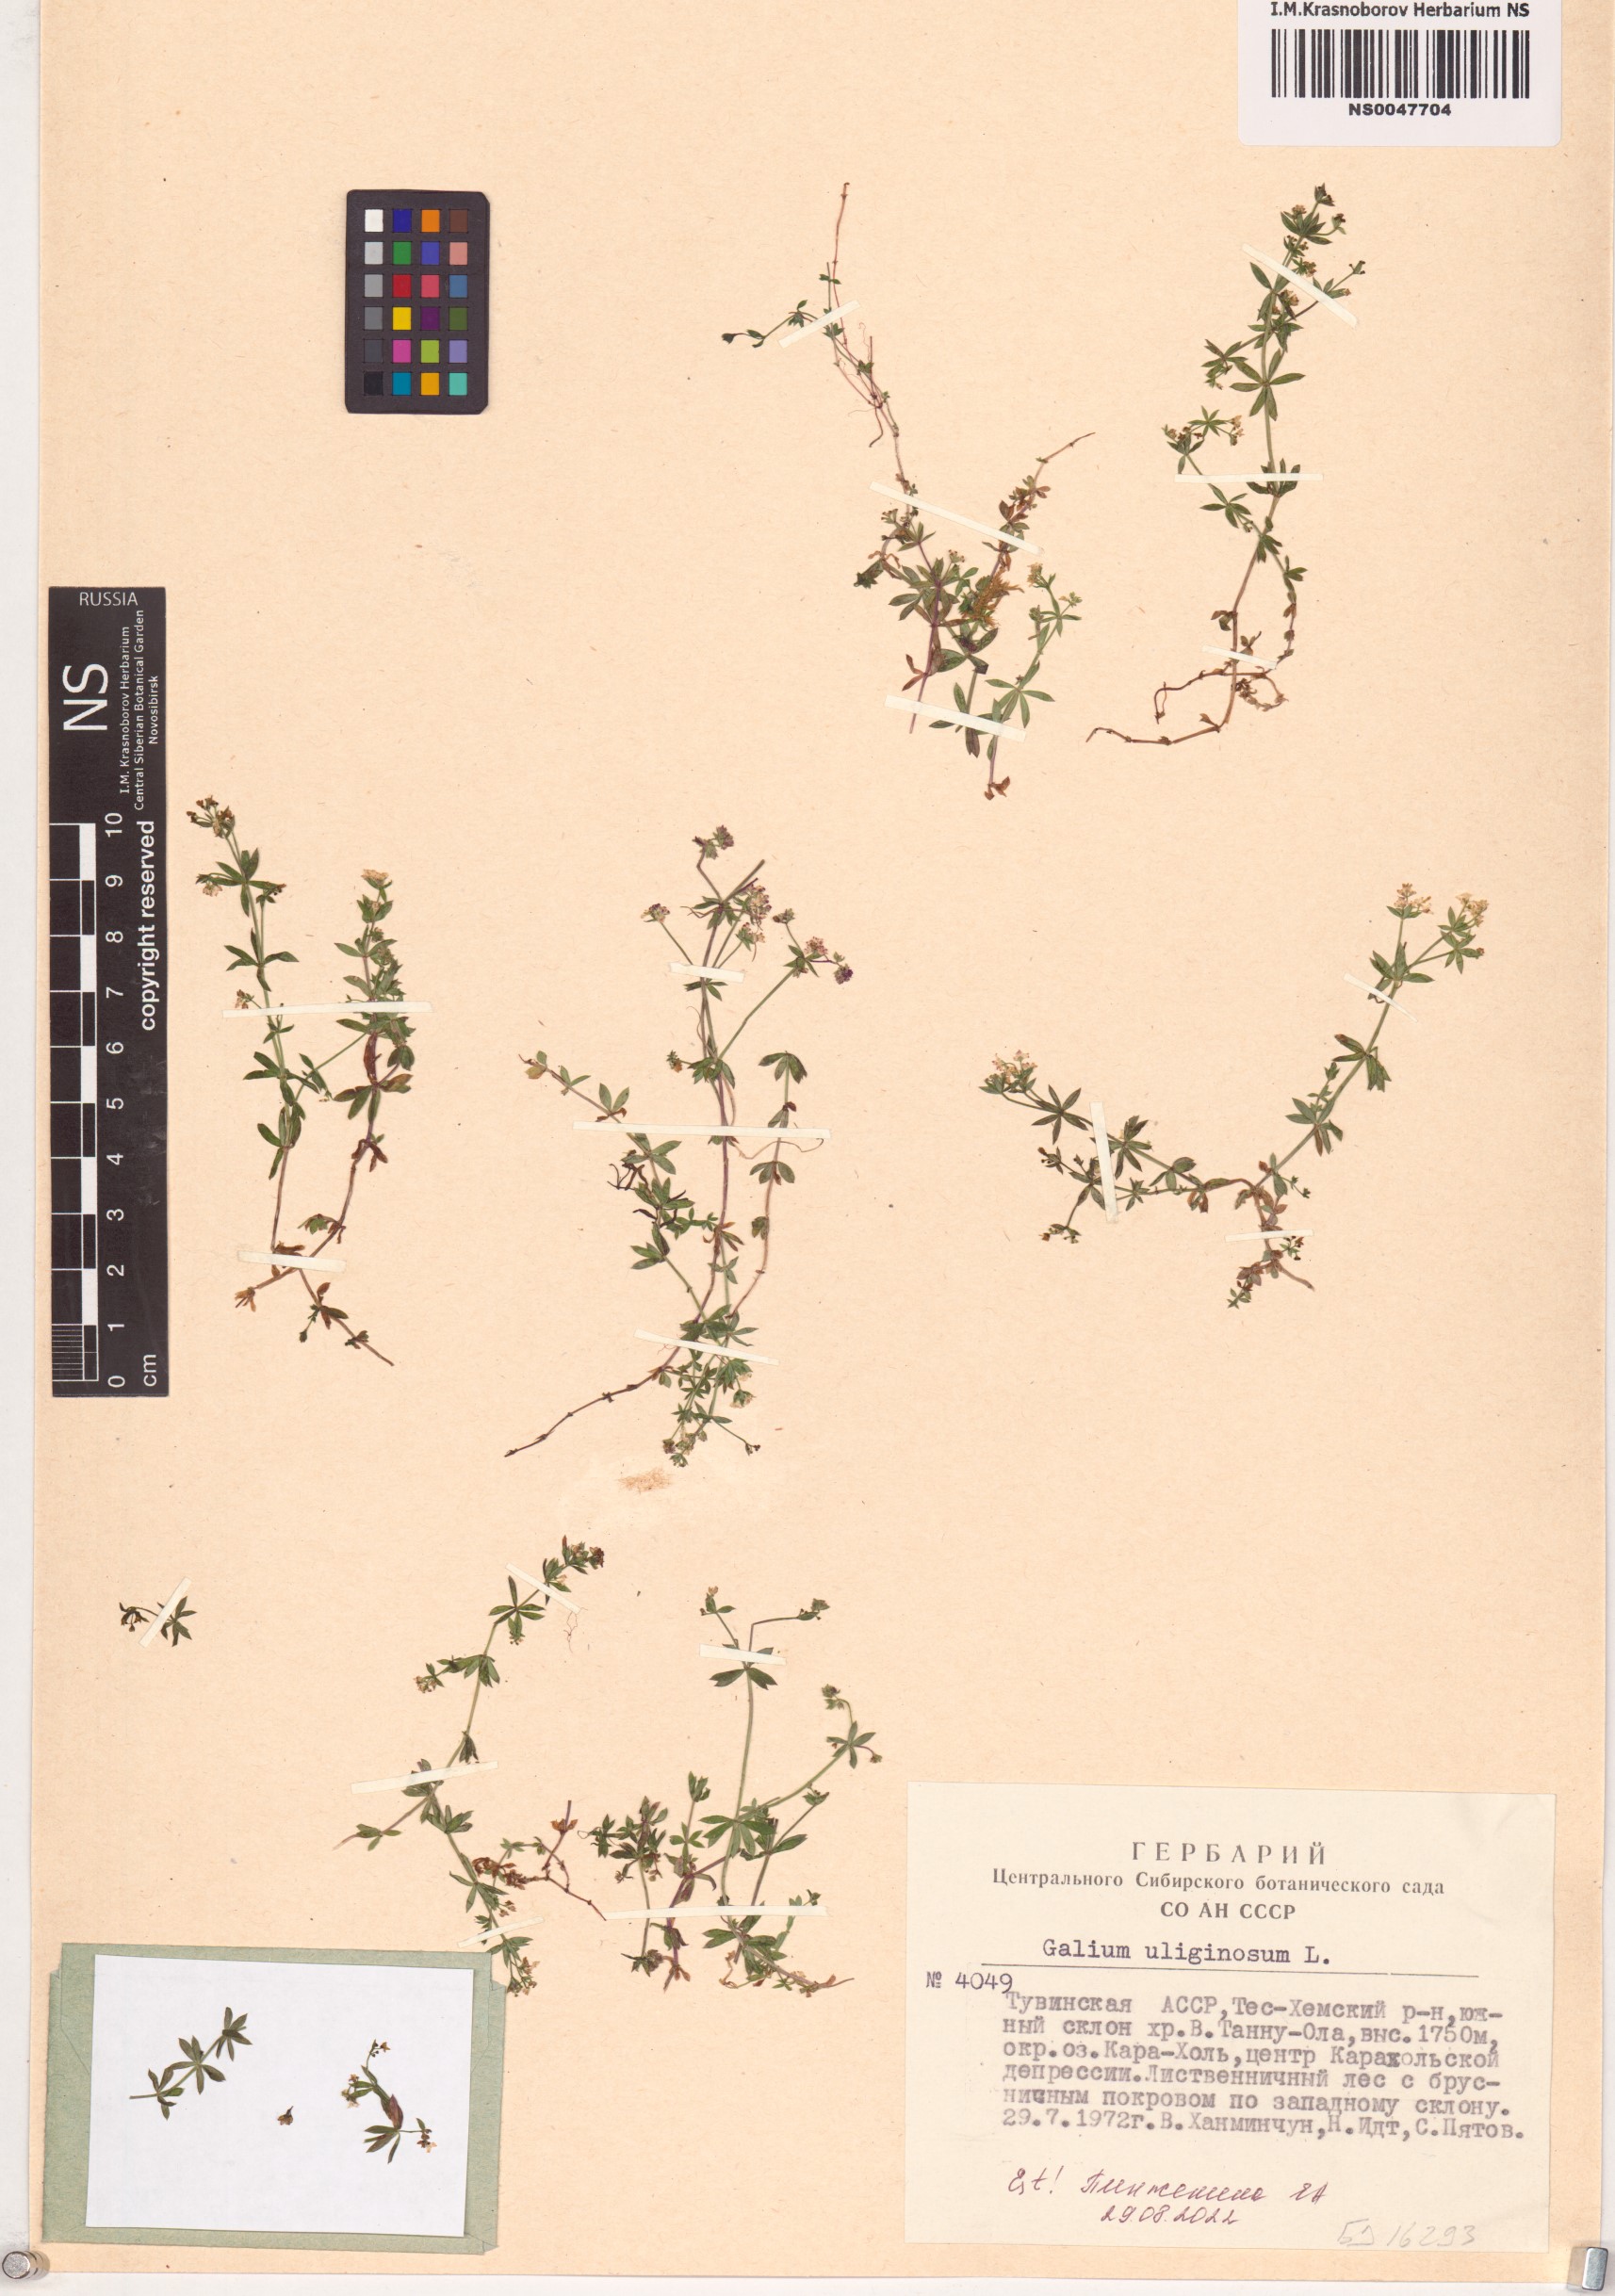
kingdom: Plantae
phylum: Tracheophyta
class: Magnoliopsida
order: Gentianales
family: Rubiaceae
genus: Galium
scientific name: Galium uliginosum
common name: Fen bedstraw
